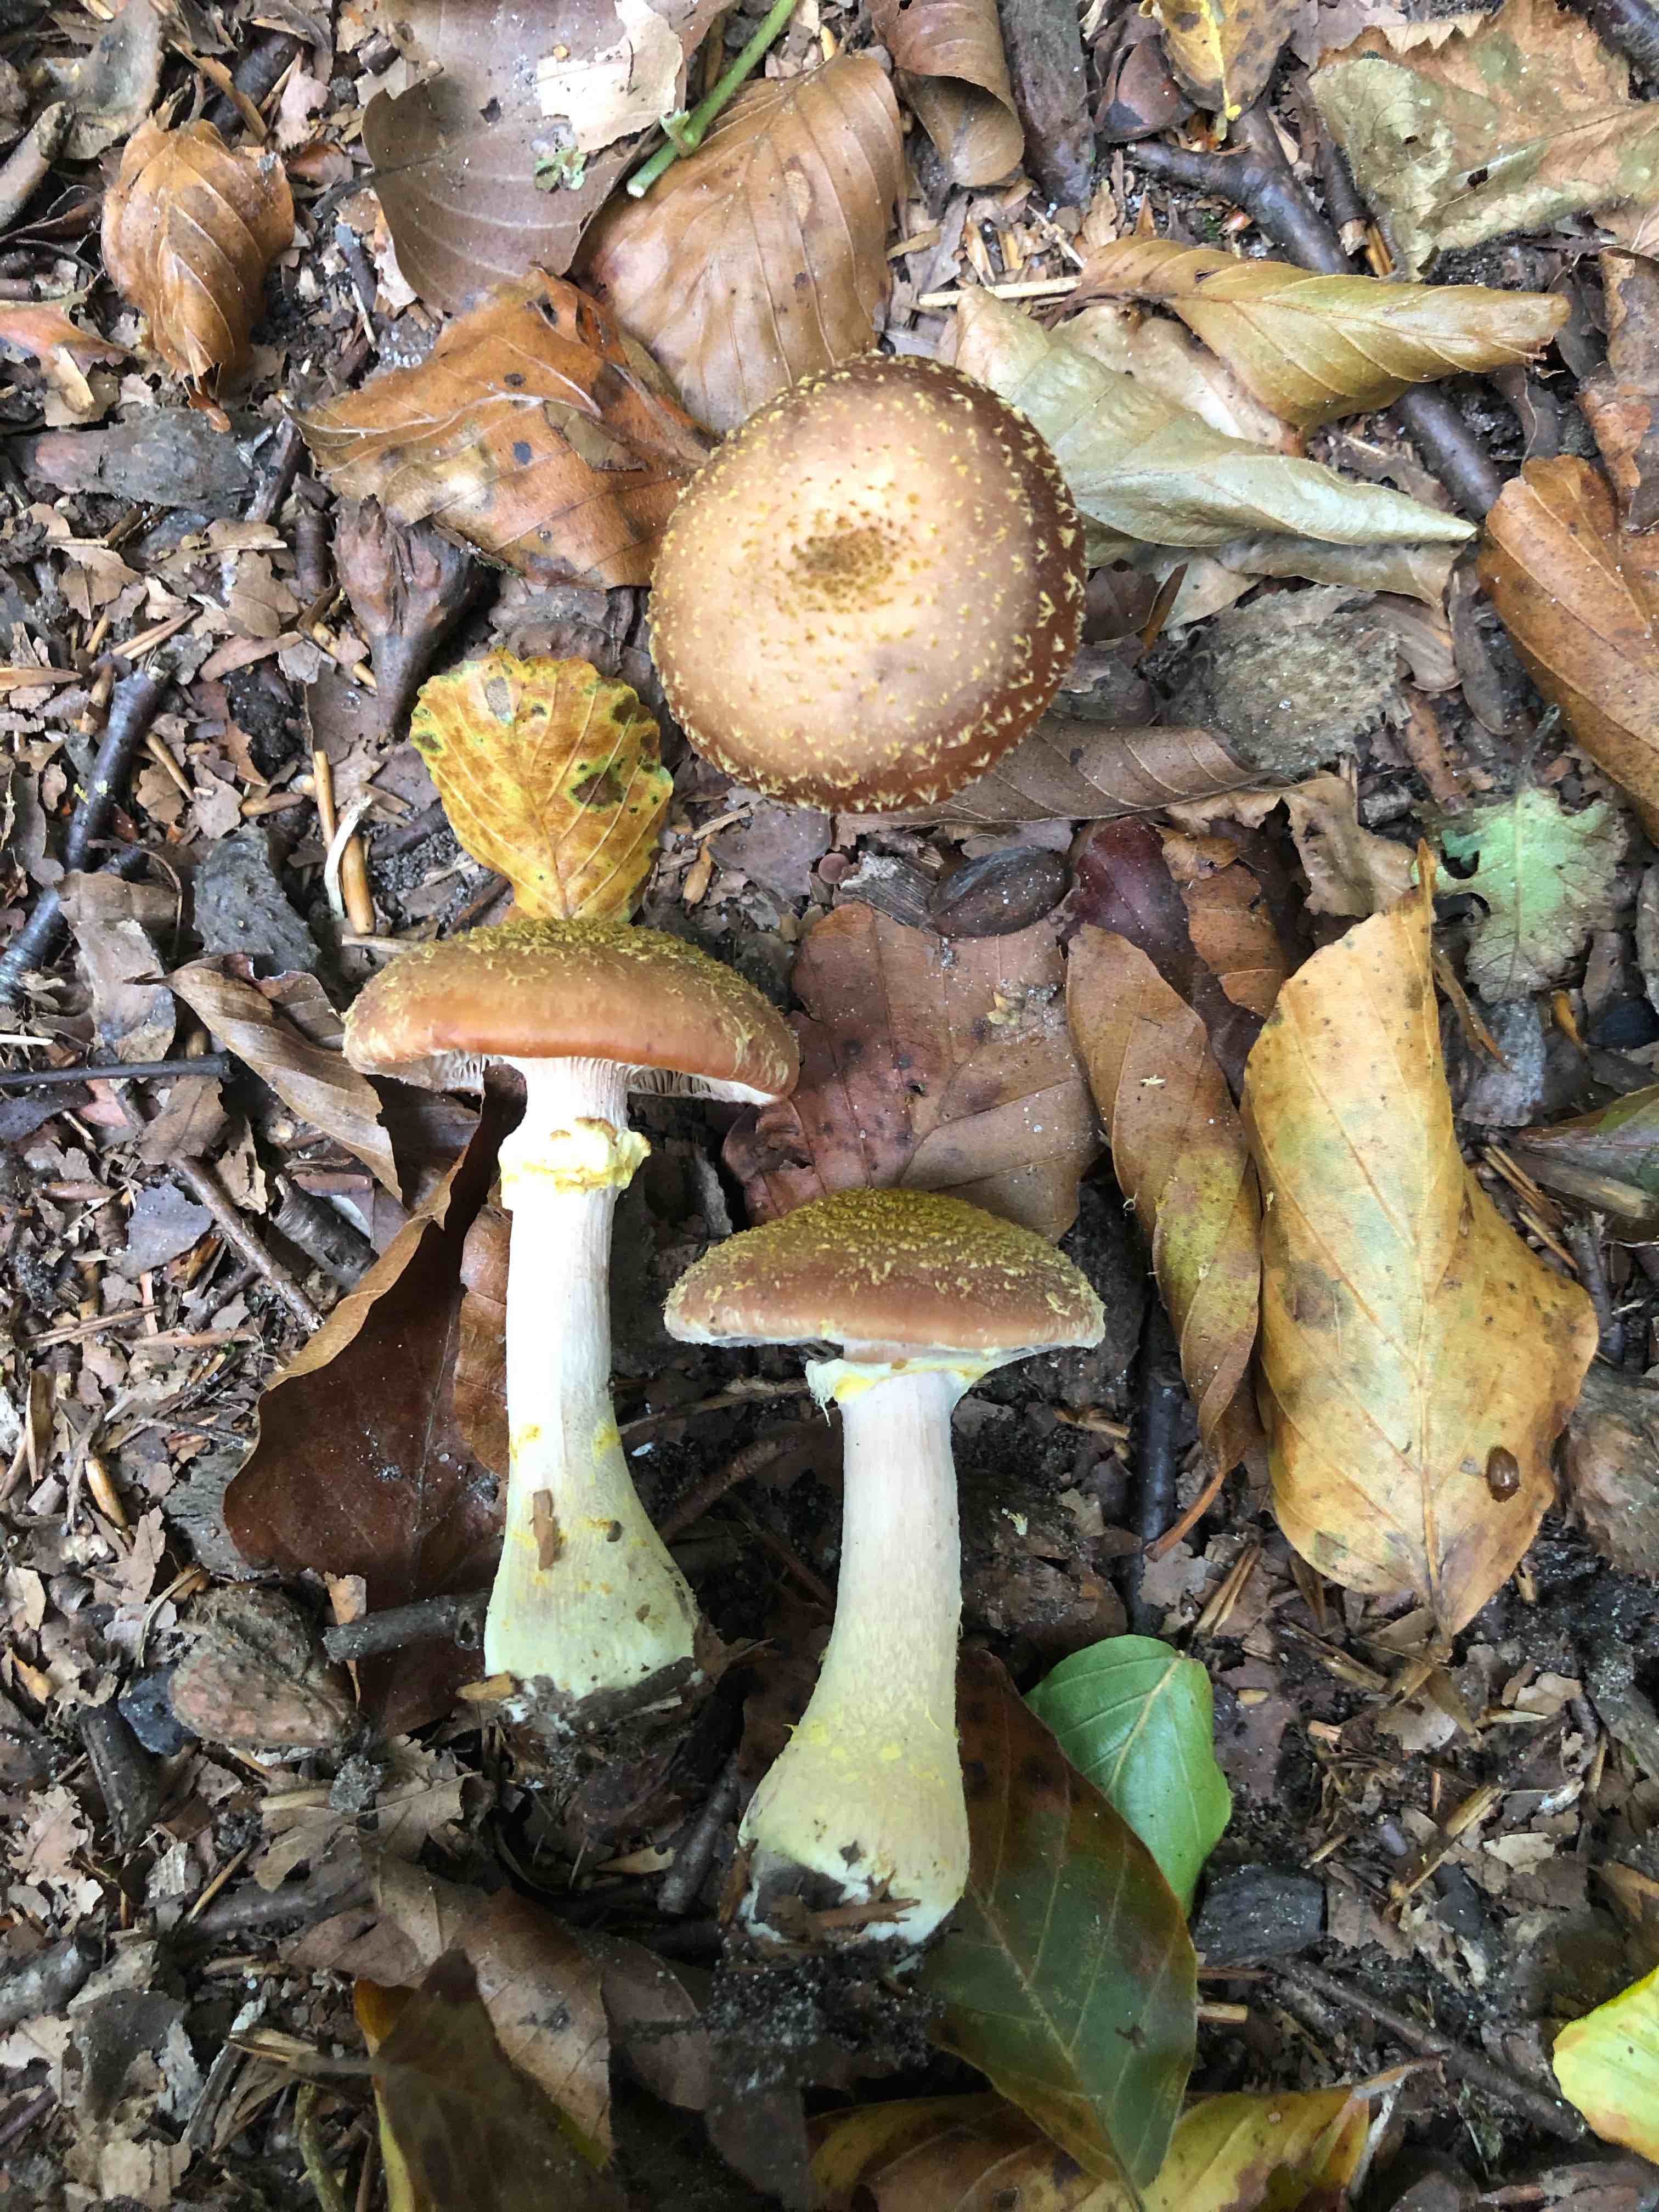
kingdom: Fungi
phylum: Basidiomycota
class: Agaricomycetes
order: Agaricales
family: Physalacriaceae
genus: Armillaria
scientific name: Armillaria lutea
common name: køllestokket honningsvamp
